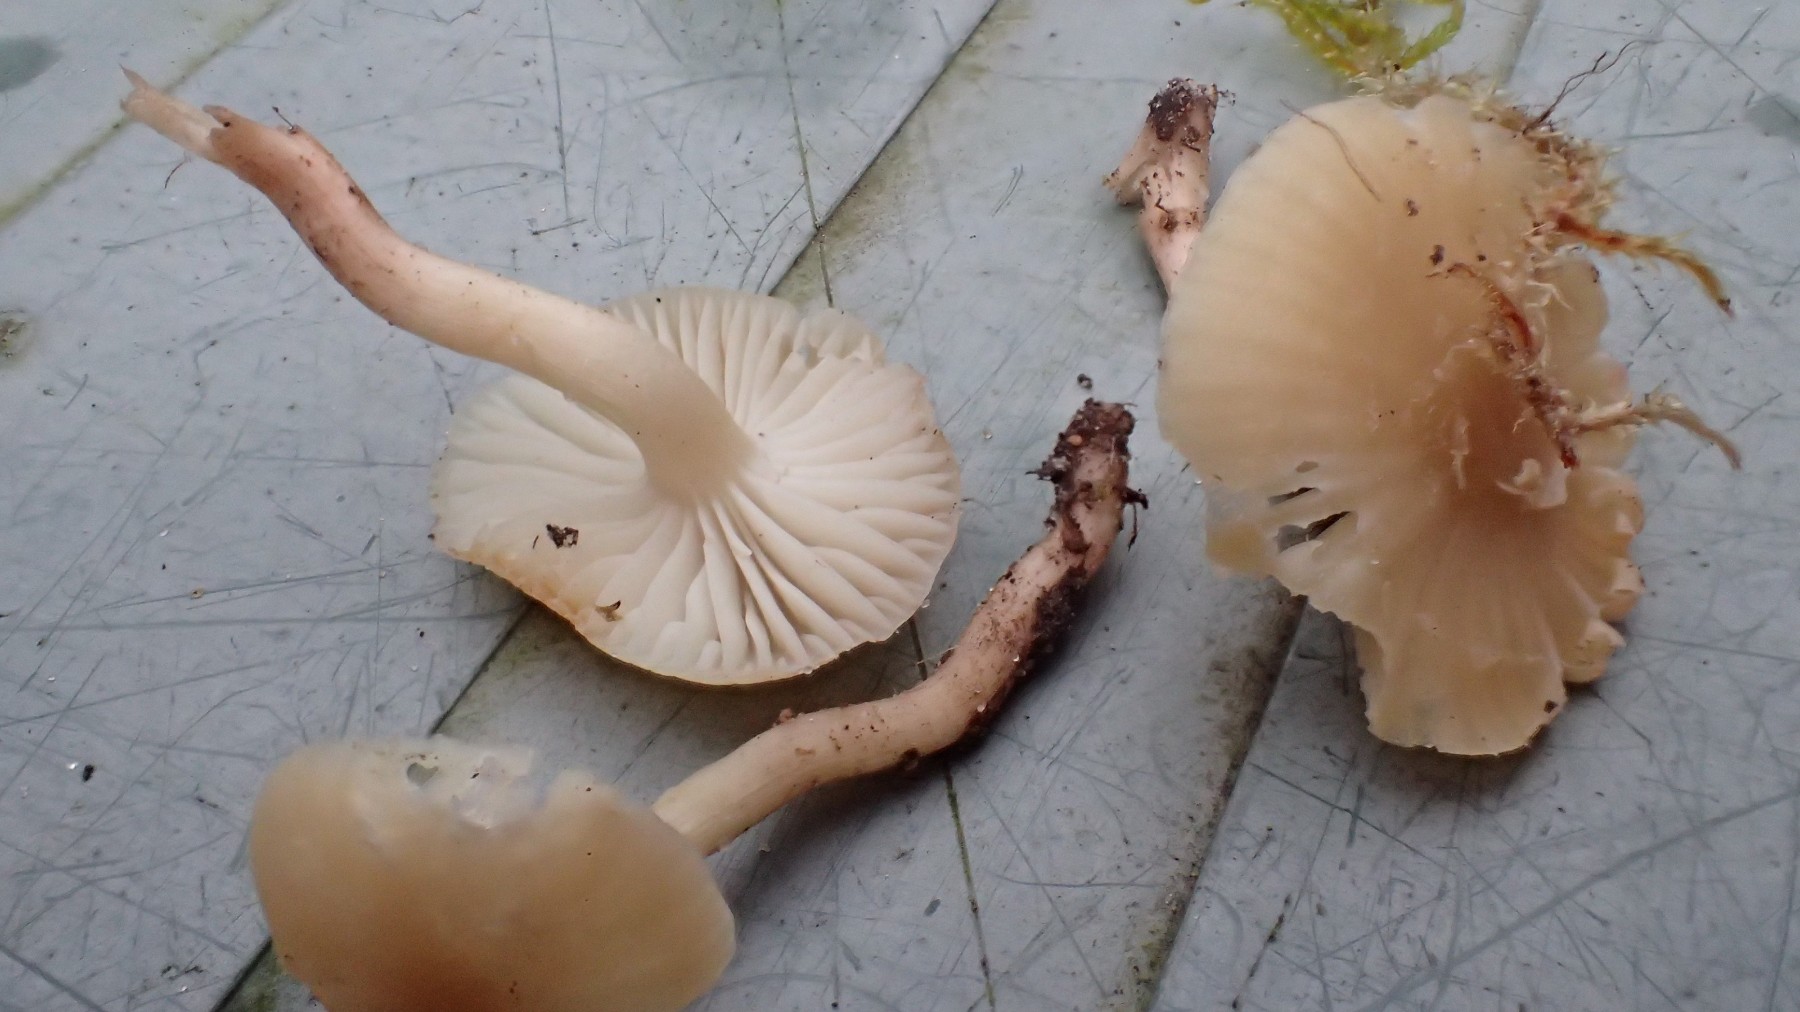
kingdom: Fungi
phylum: Basidiomycota
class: Agaricomycetes
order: Agaricales
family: Hygrophoraceae
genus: Cuphophyllus
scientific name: Cuphophyllus russocoriaceus
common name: ruslæder-vokshat
